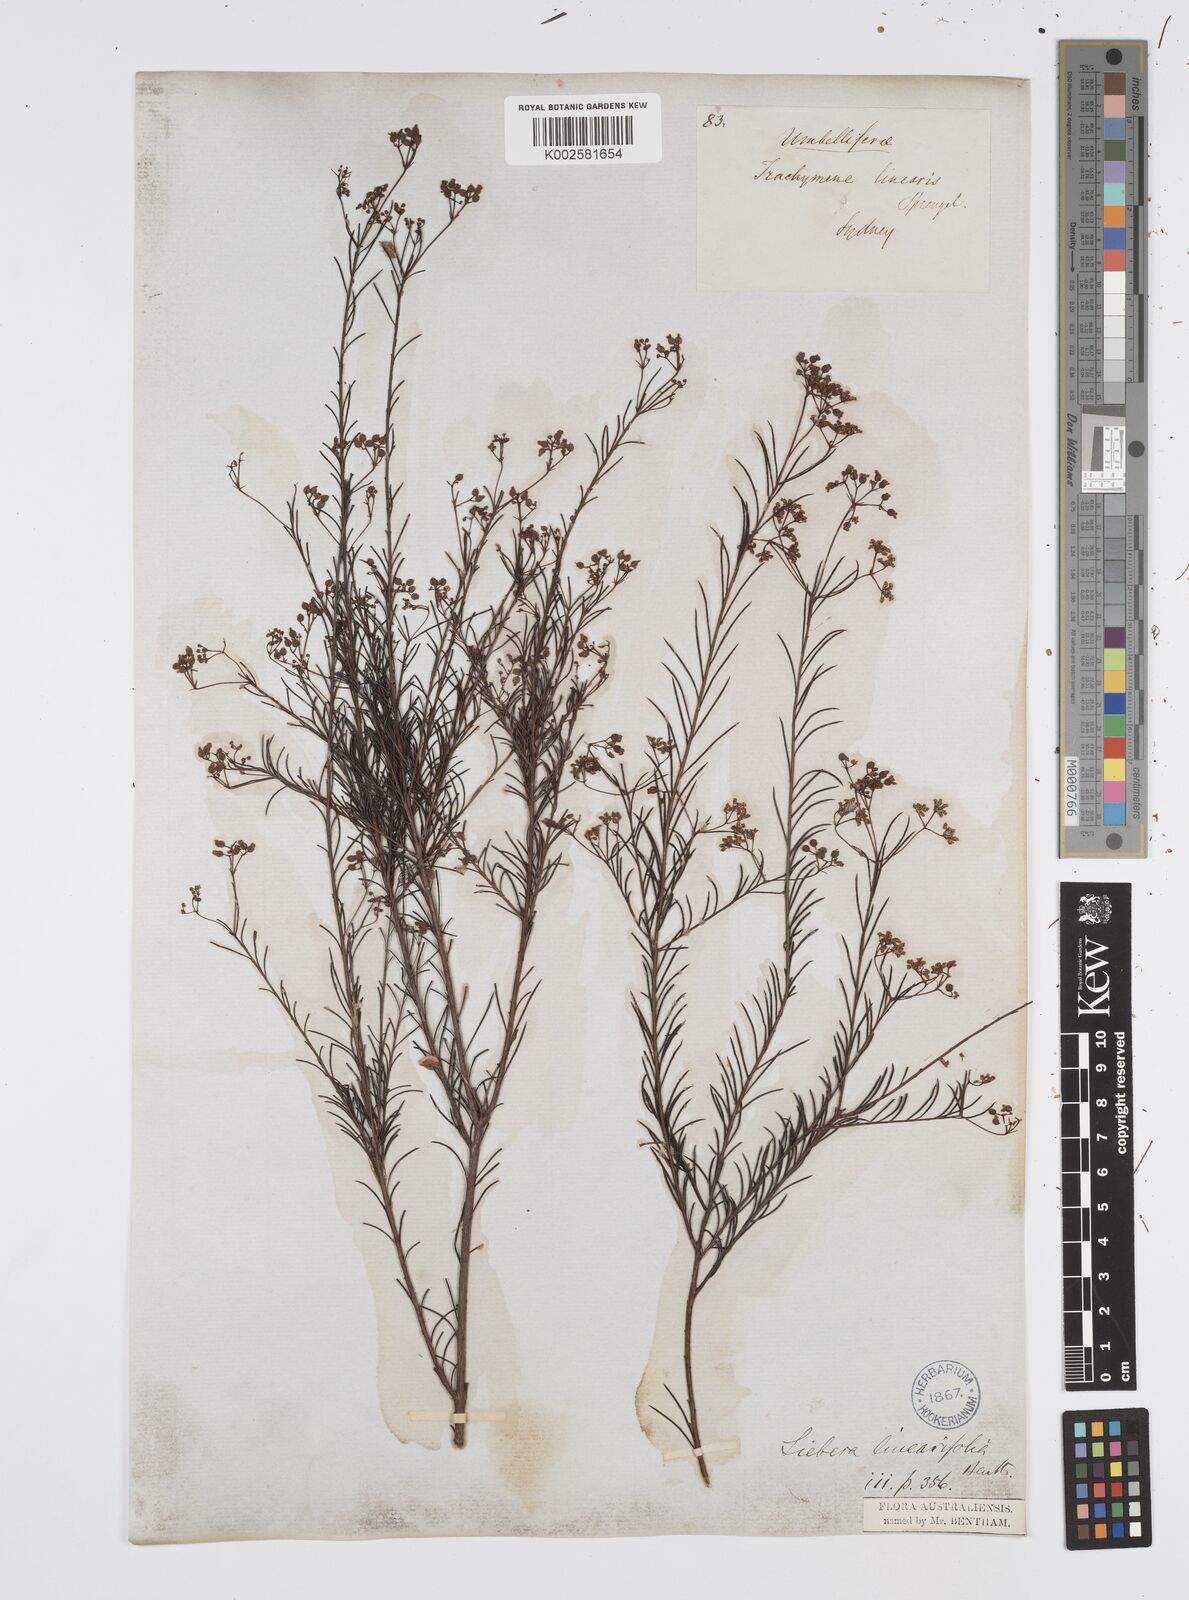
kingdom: Plantae
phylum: Tracheophyta
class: Magnoliopsida
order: Apiales
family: Apiaceae
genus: Platysace
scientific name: Platysace linearifolia
